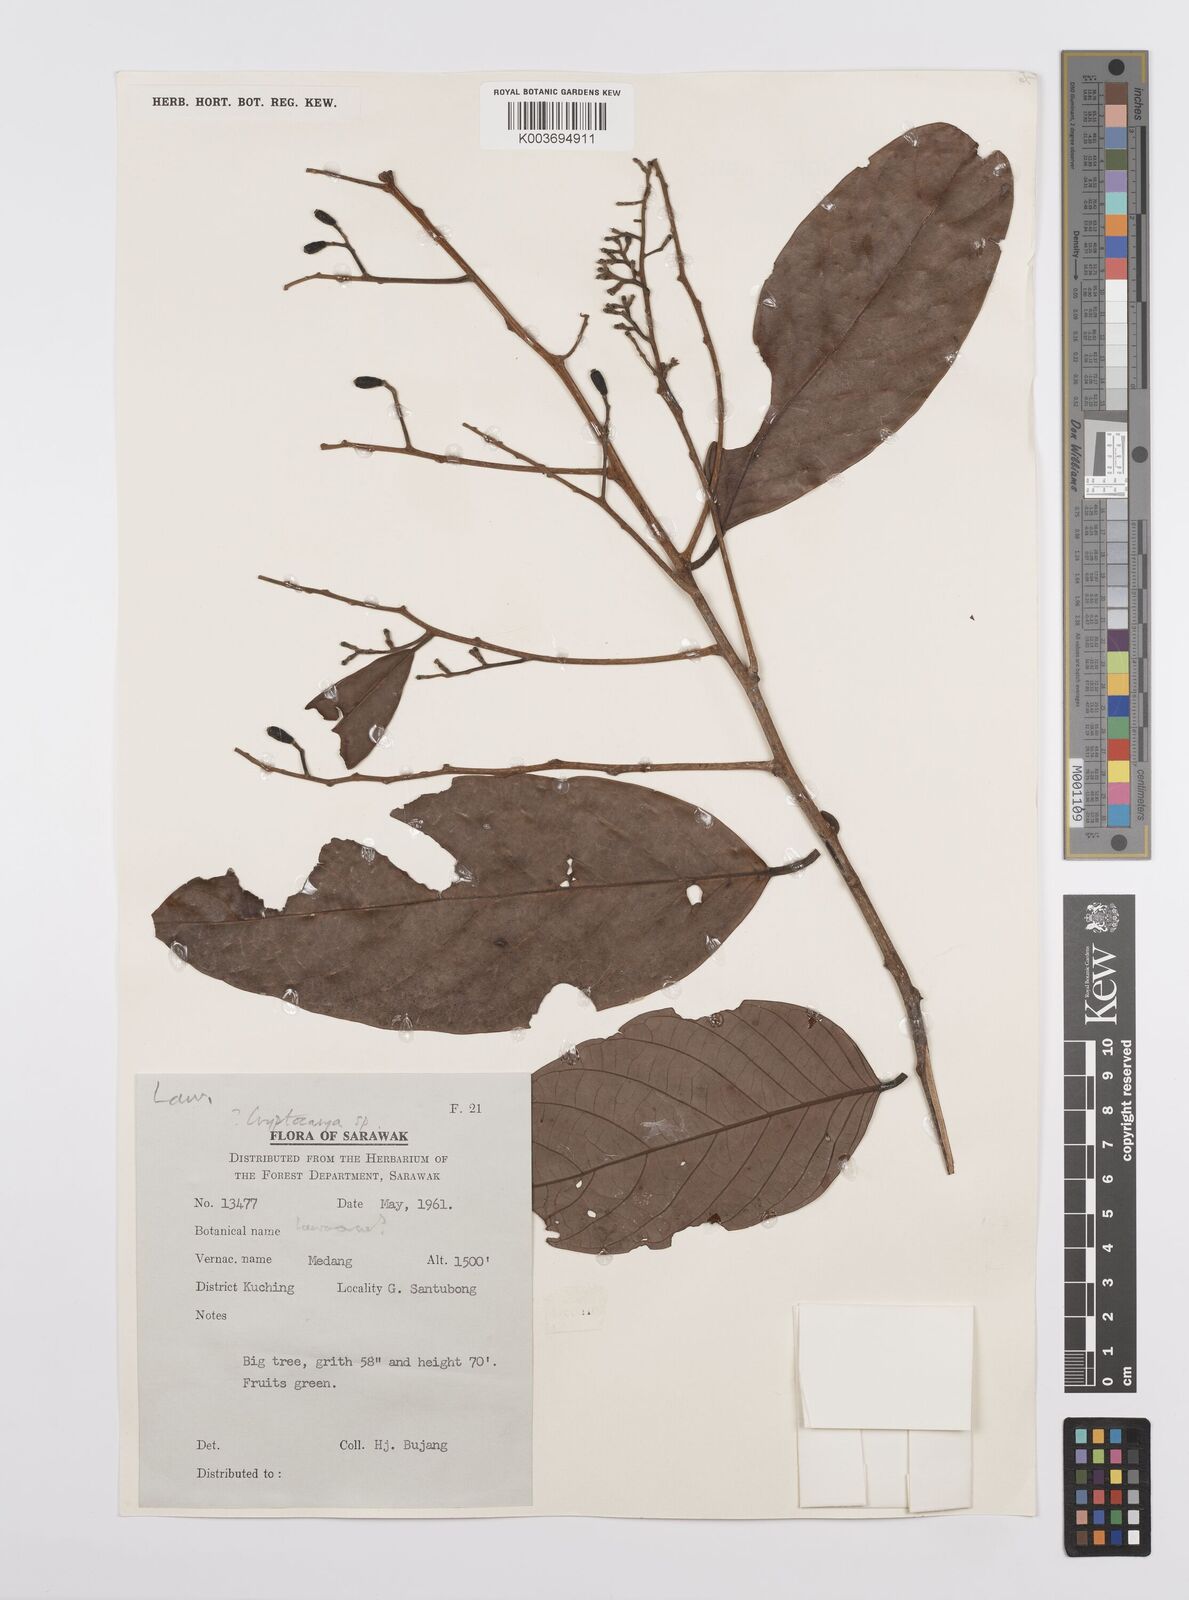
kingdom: Plantae
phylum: Tracheophyta
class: Magnoliopsida
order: Laurales
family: Lauraceae
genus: Cryptocarya
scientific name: Cryptocarya
